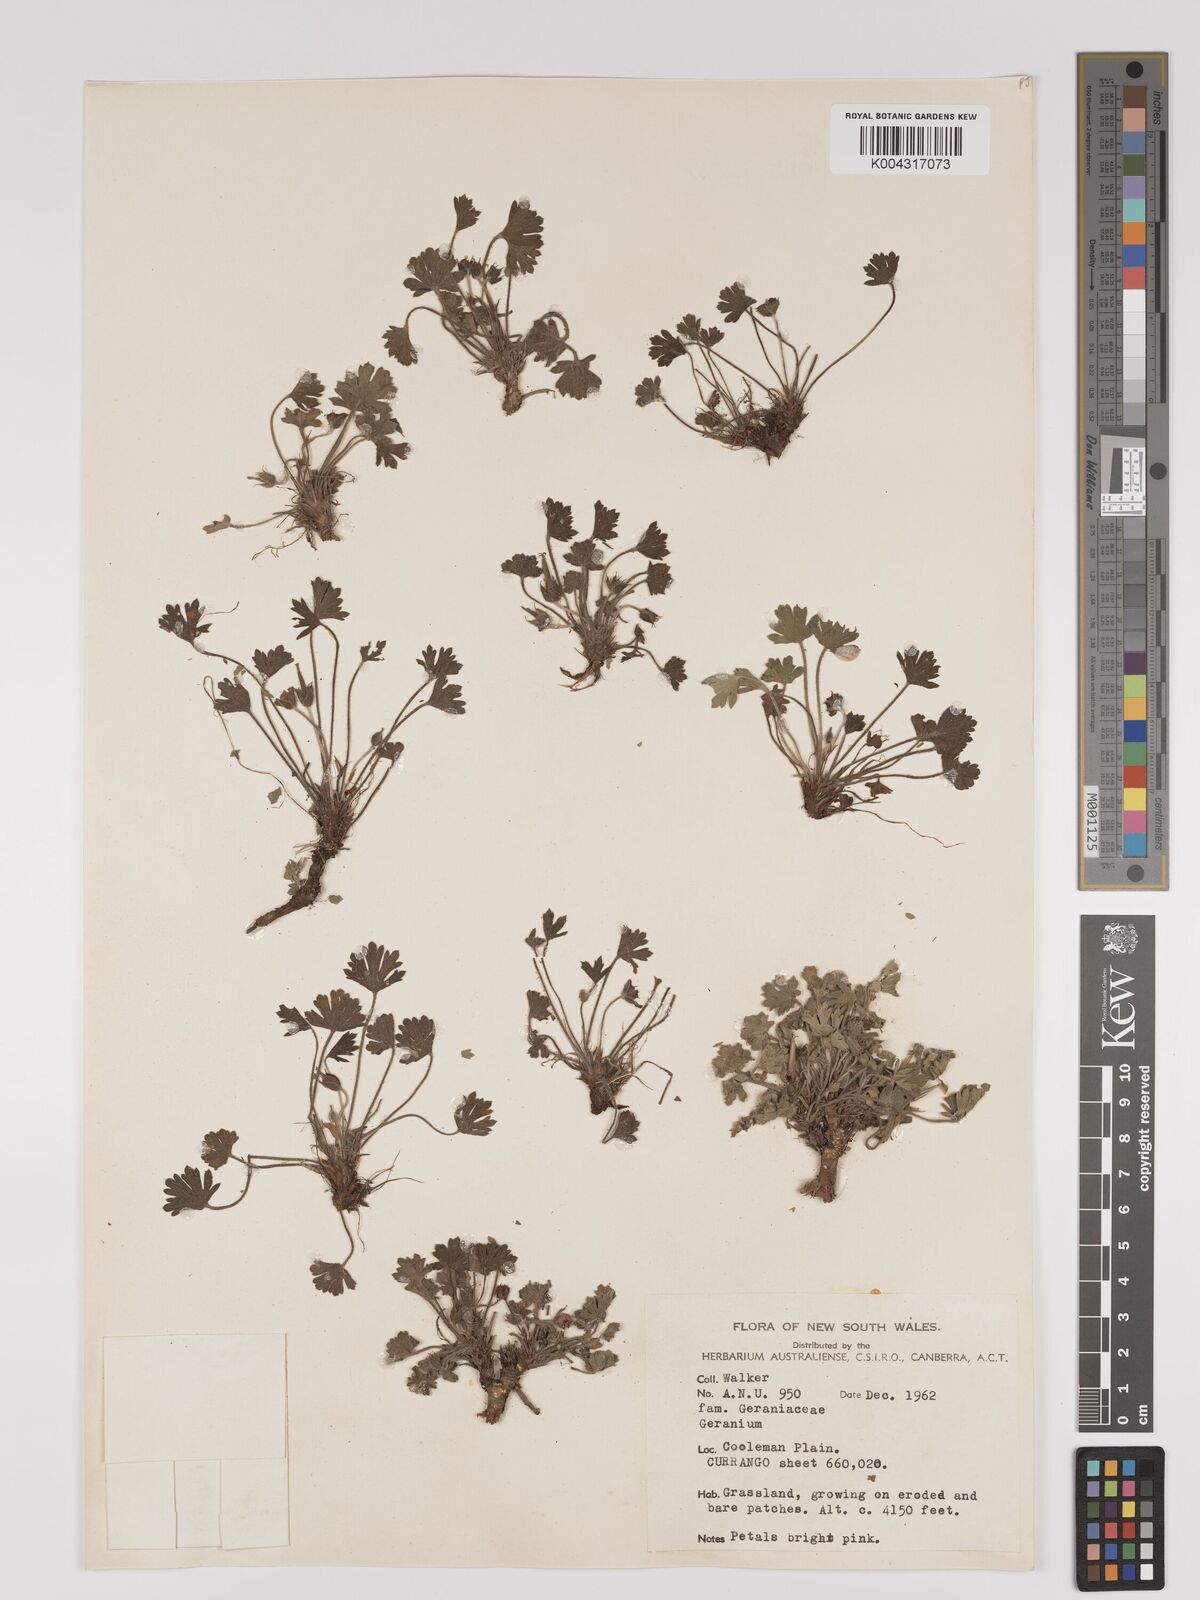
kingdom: Plantae
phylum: Tracheophyta
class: Magnoliopsida
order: Geraniales
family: Geraniaceae
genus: Geranium
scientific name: Geranium
